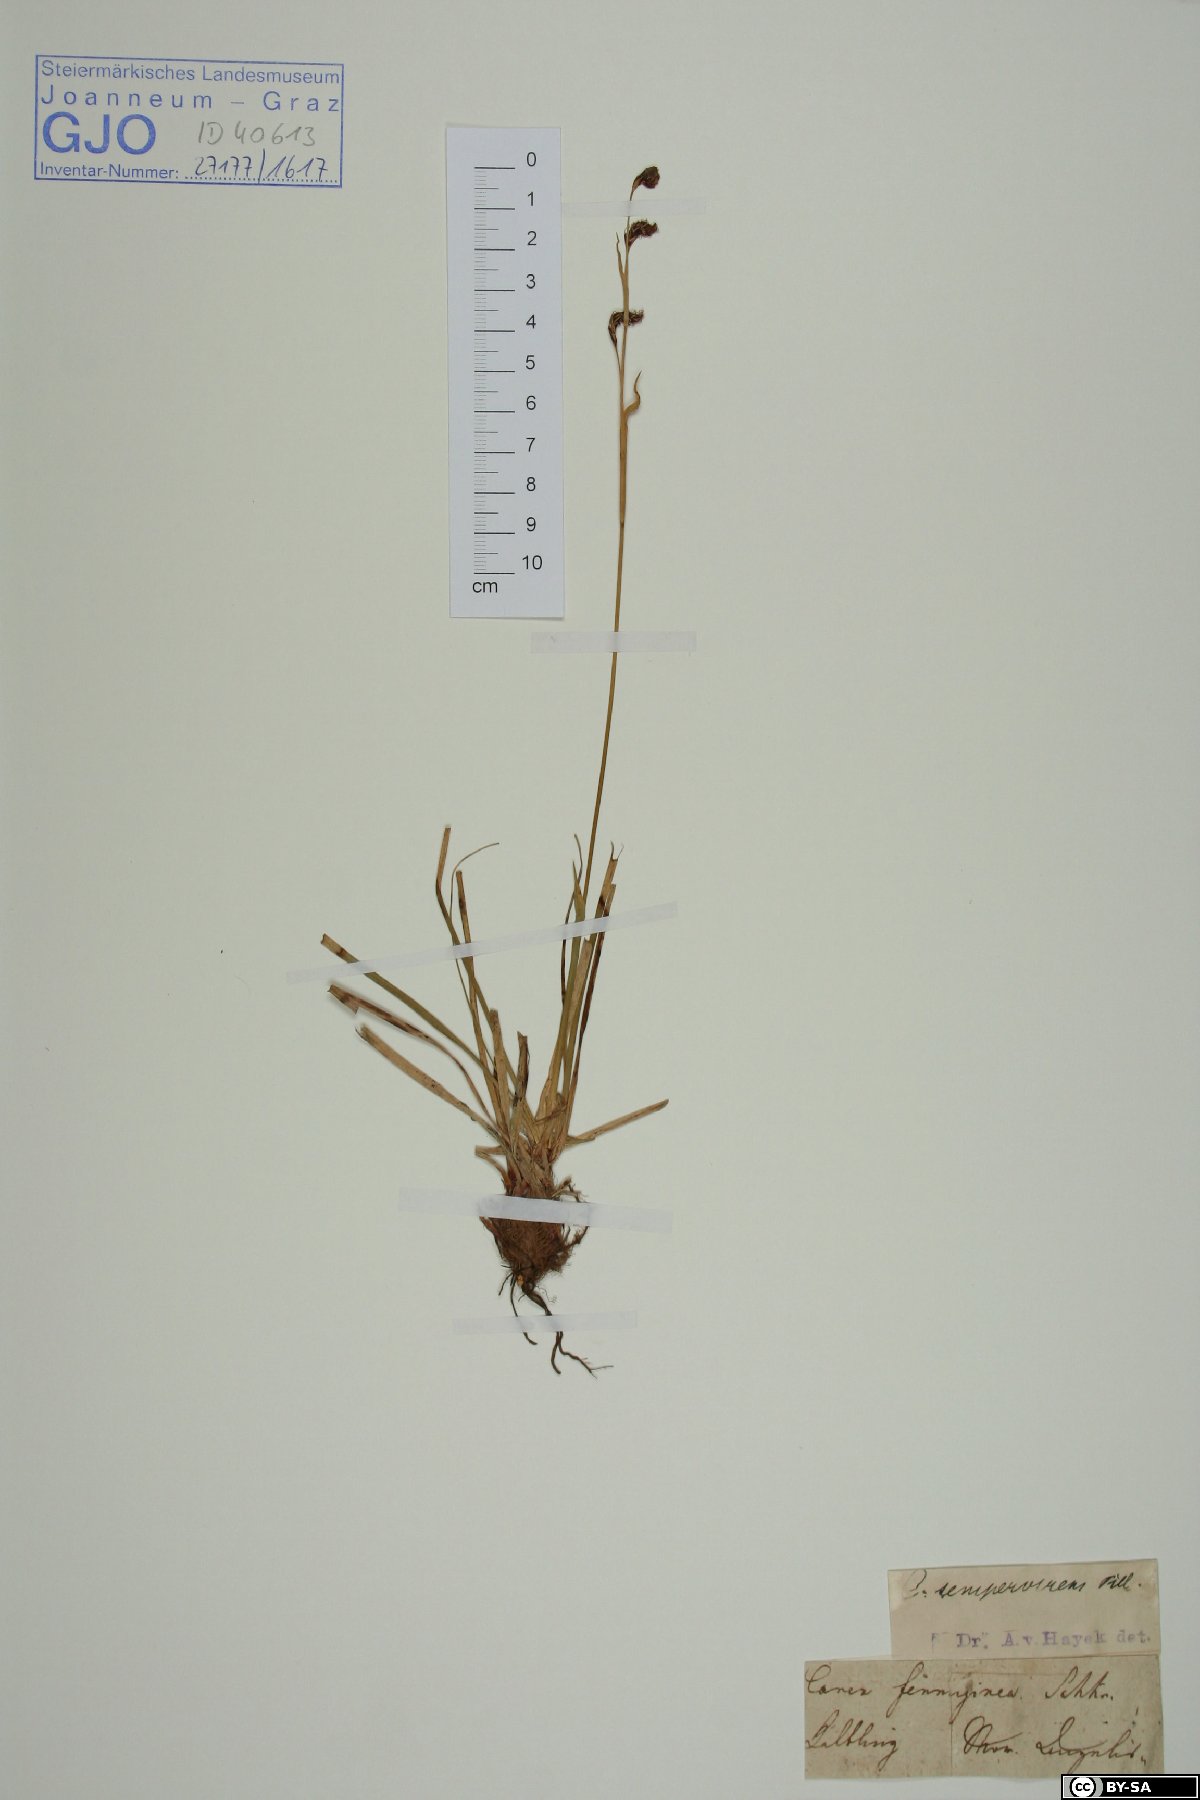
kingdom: Plantae
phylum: Tracheophyta
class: Liliopsida
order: Poales
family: Cyperaceae
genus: Carex
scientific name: Carex sempervirens
